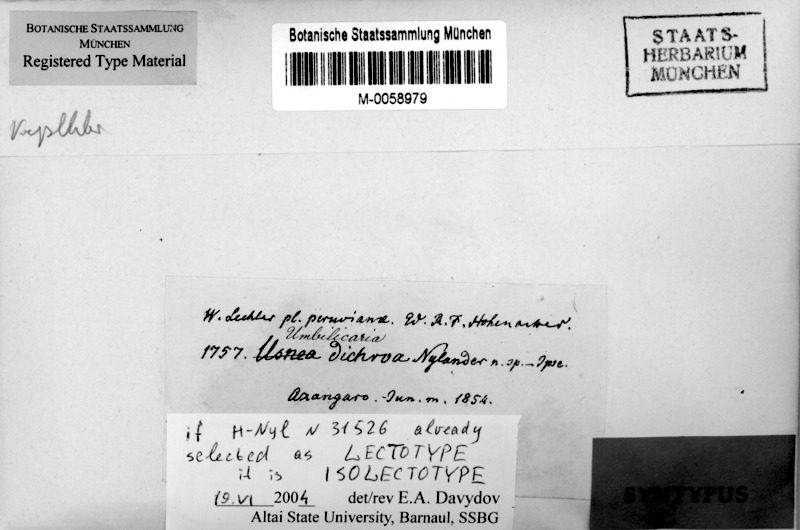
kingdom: Fungi
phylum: Ascomycota
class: Lecanoromycetes
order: Umbilicariales
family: Umbilicariaceae
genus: Umbilicaria
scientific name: Umbilicaria dichroa
